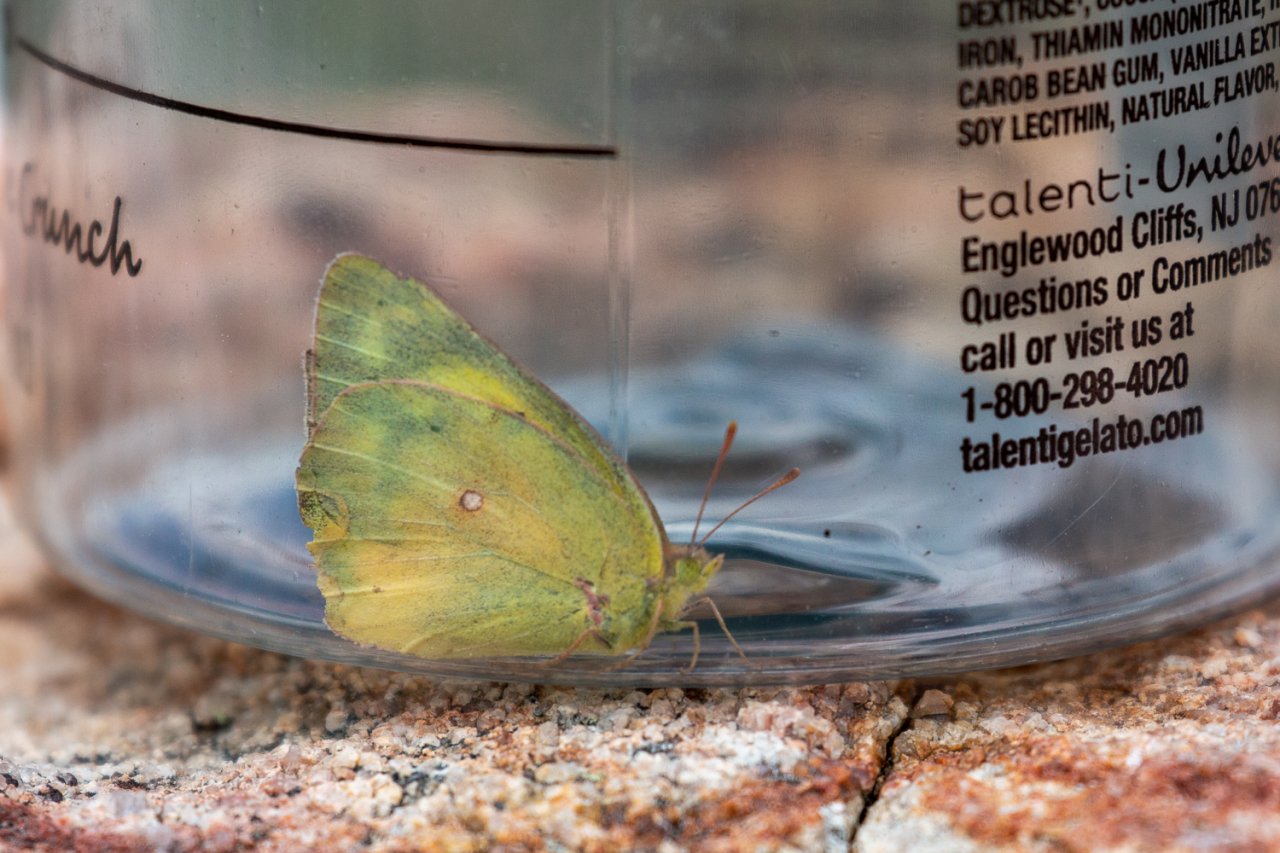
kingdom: Animalia
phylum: Arthropoda
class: Insecta
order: Lepidoptera
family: Pieridae
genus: Colias
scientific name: Colias alexandra
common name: Queen Alexandra's Sulphur
